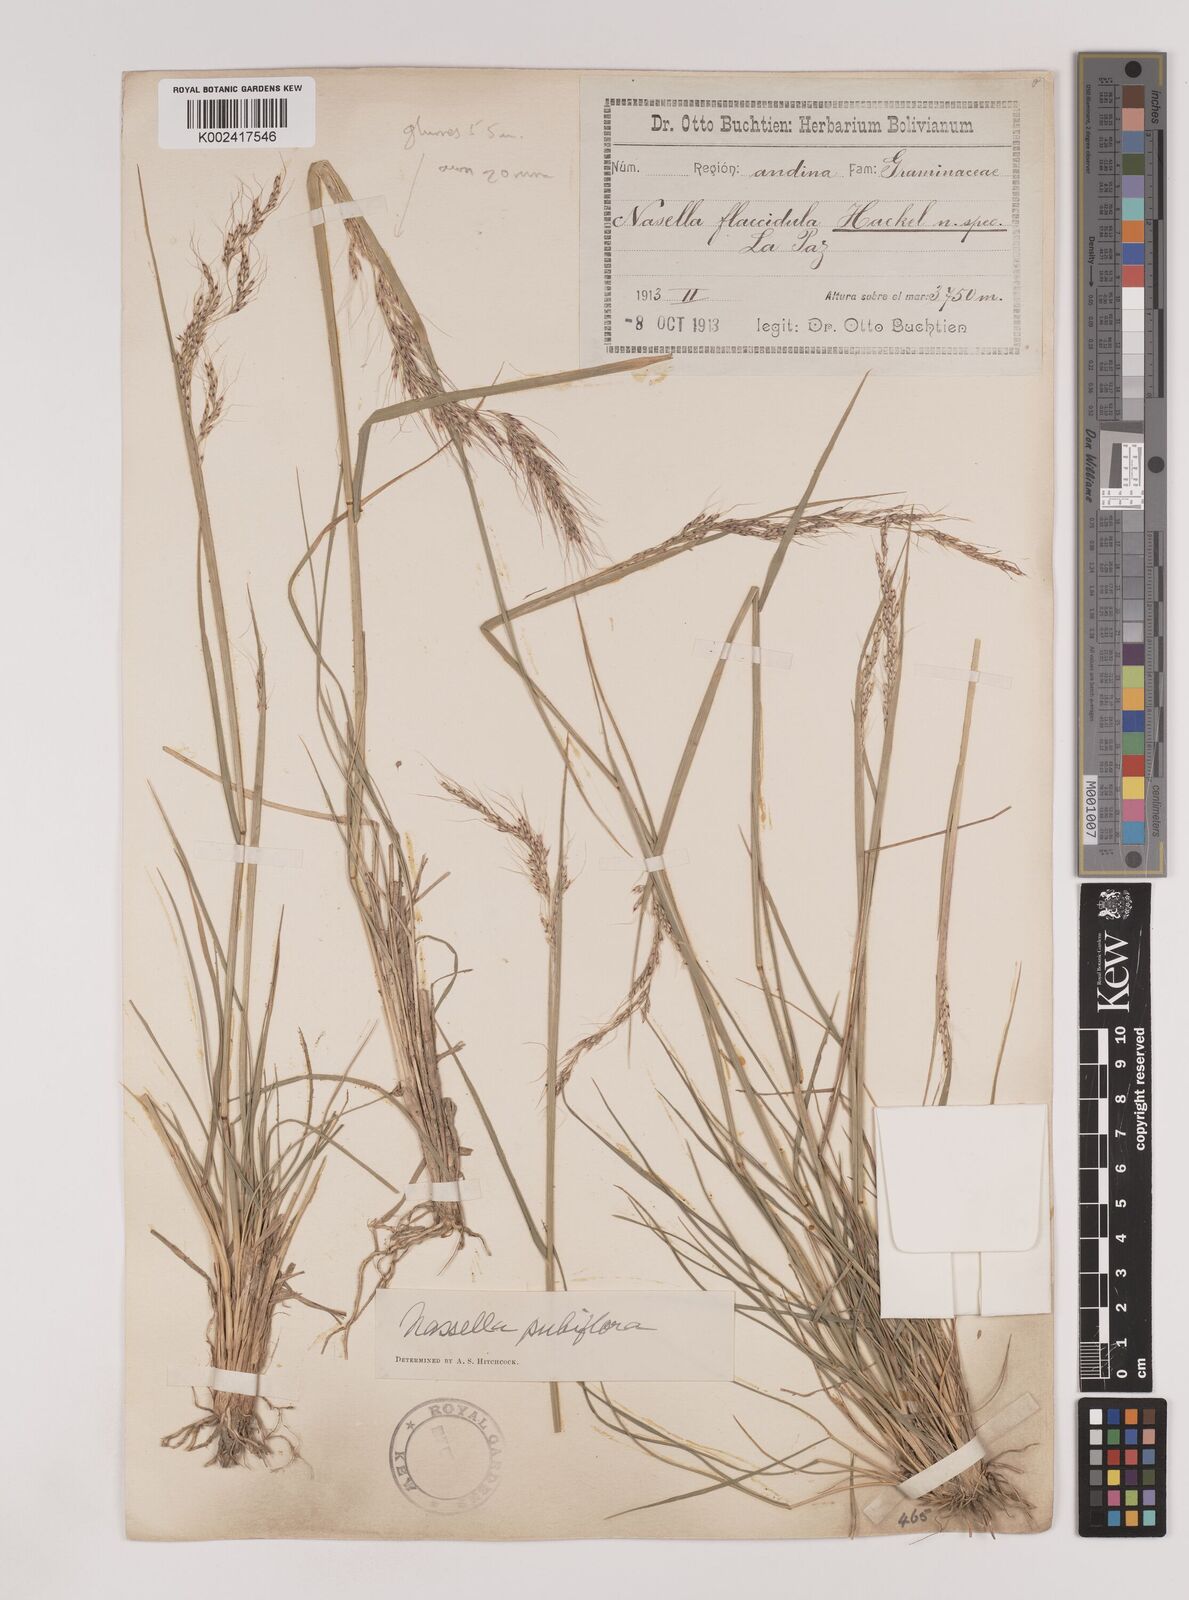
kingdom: Plantae
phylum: Tracheophyta
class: Liliopsida
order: Poales
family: Poaceae
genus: Nassella
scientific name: Nassella pubiflora
